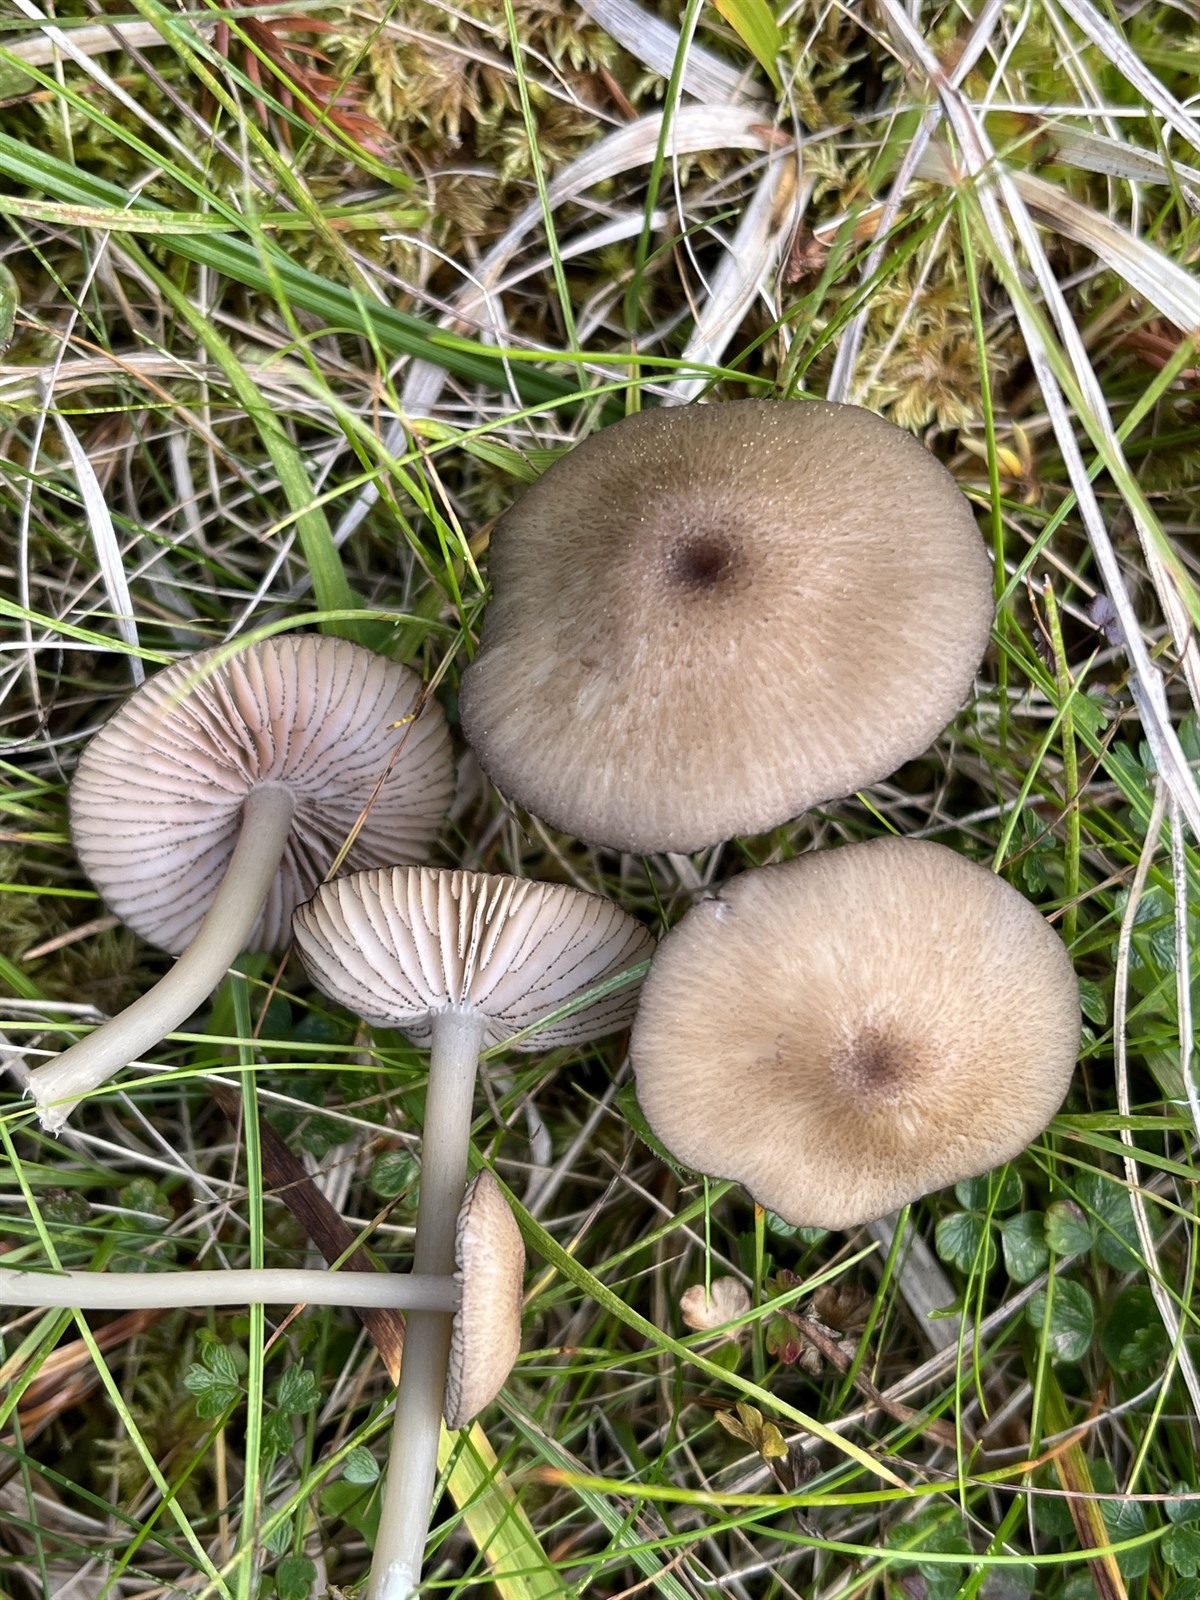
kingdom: Fungi
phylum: Basidiomycota
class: Agaricomycetes
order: Agaricales
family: Entolomataceae
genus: Entoloma
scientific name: Entoloma querquedula
